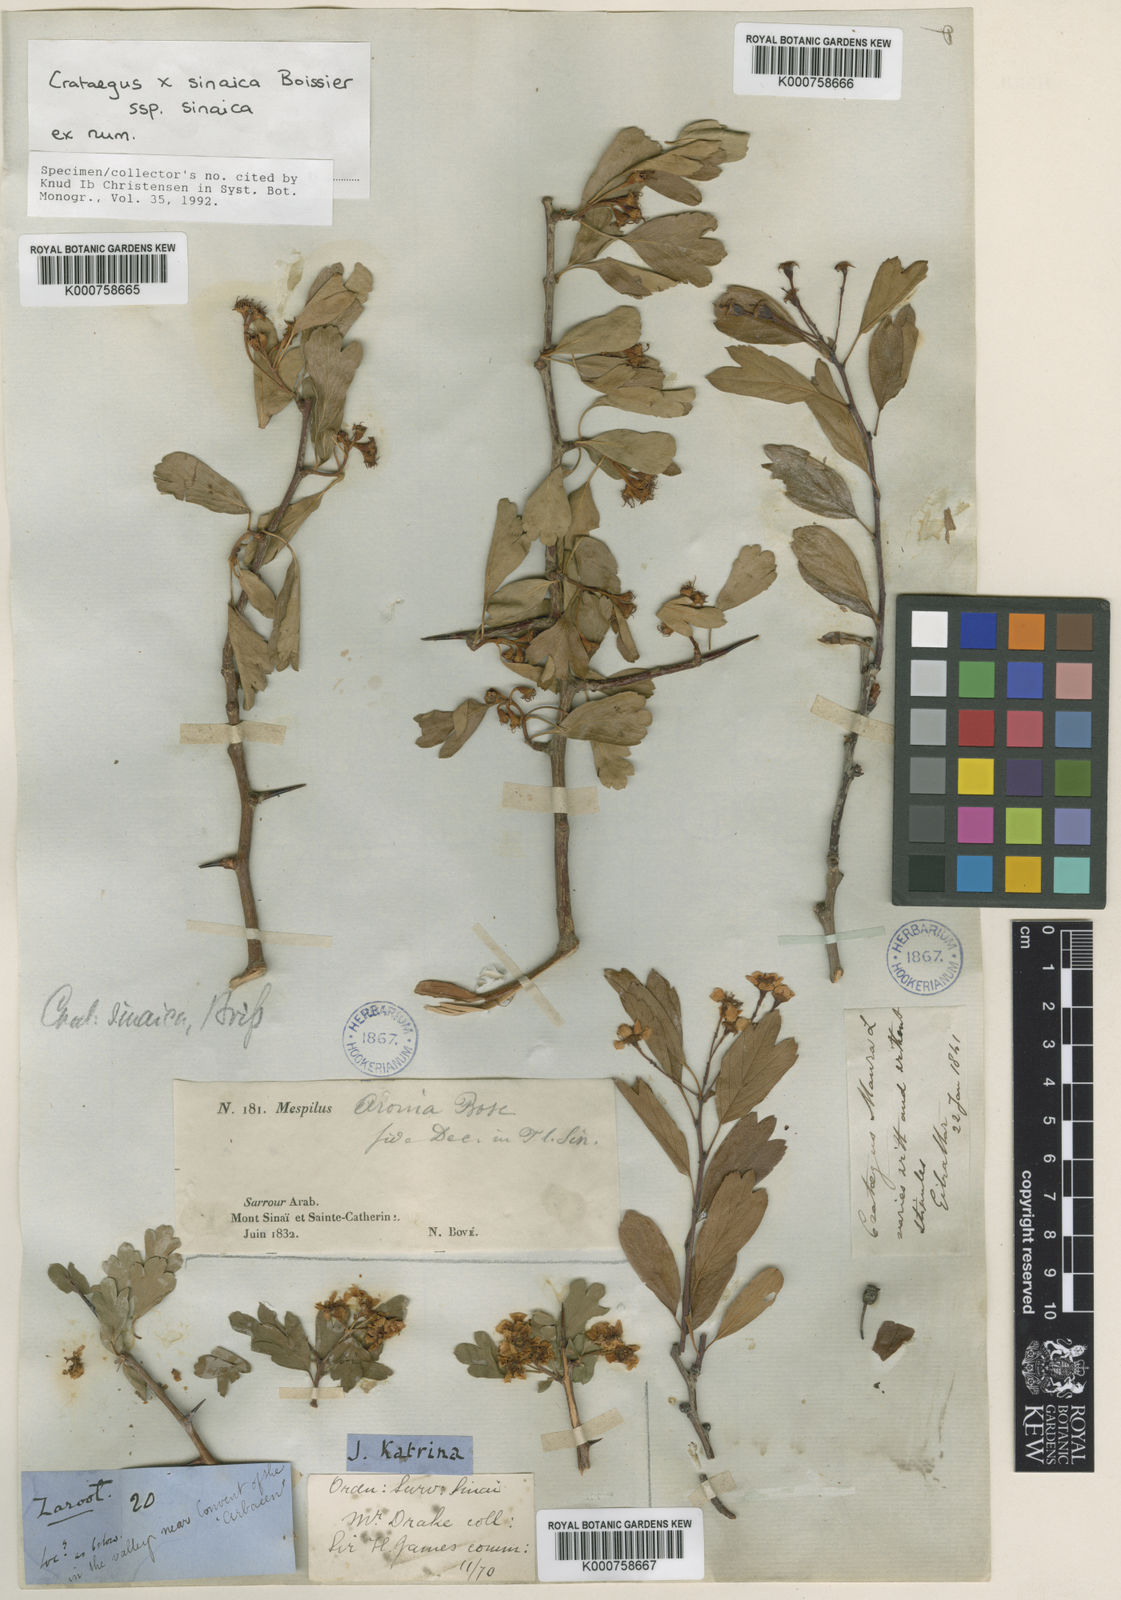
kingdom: Plantae
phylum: Tracheophyta
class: Magnoliopsida
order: Rosales
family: Rosaceae
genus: Crataegus
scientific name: Crataegus sinaica
